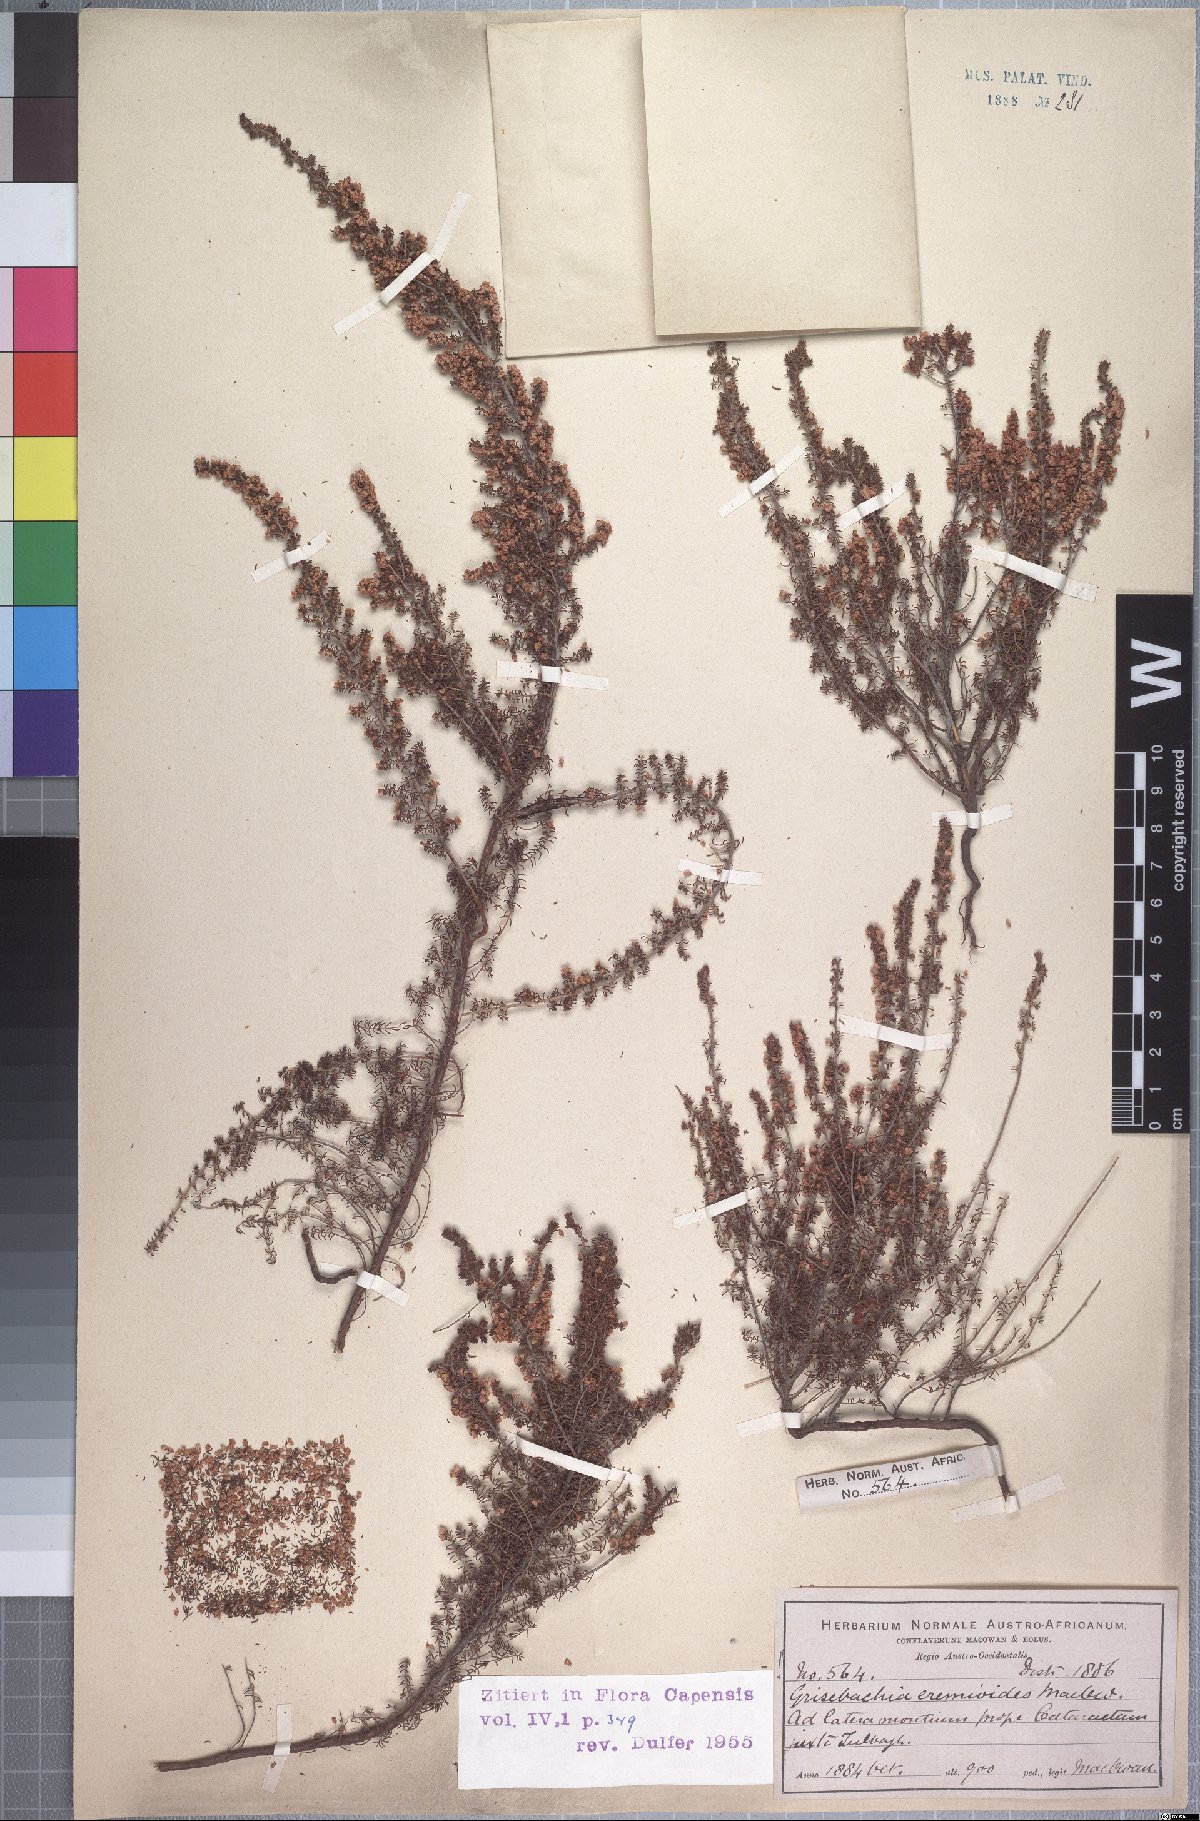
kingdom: Plantae
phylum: Tracheophyta
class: Magnoliopsida
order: Ericales
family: Ericaceae
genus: Erica
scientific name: Erica eremioides
